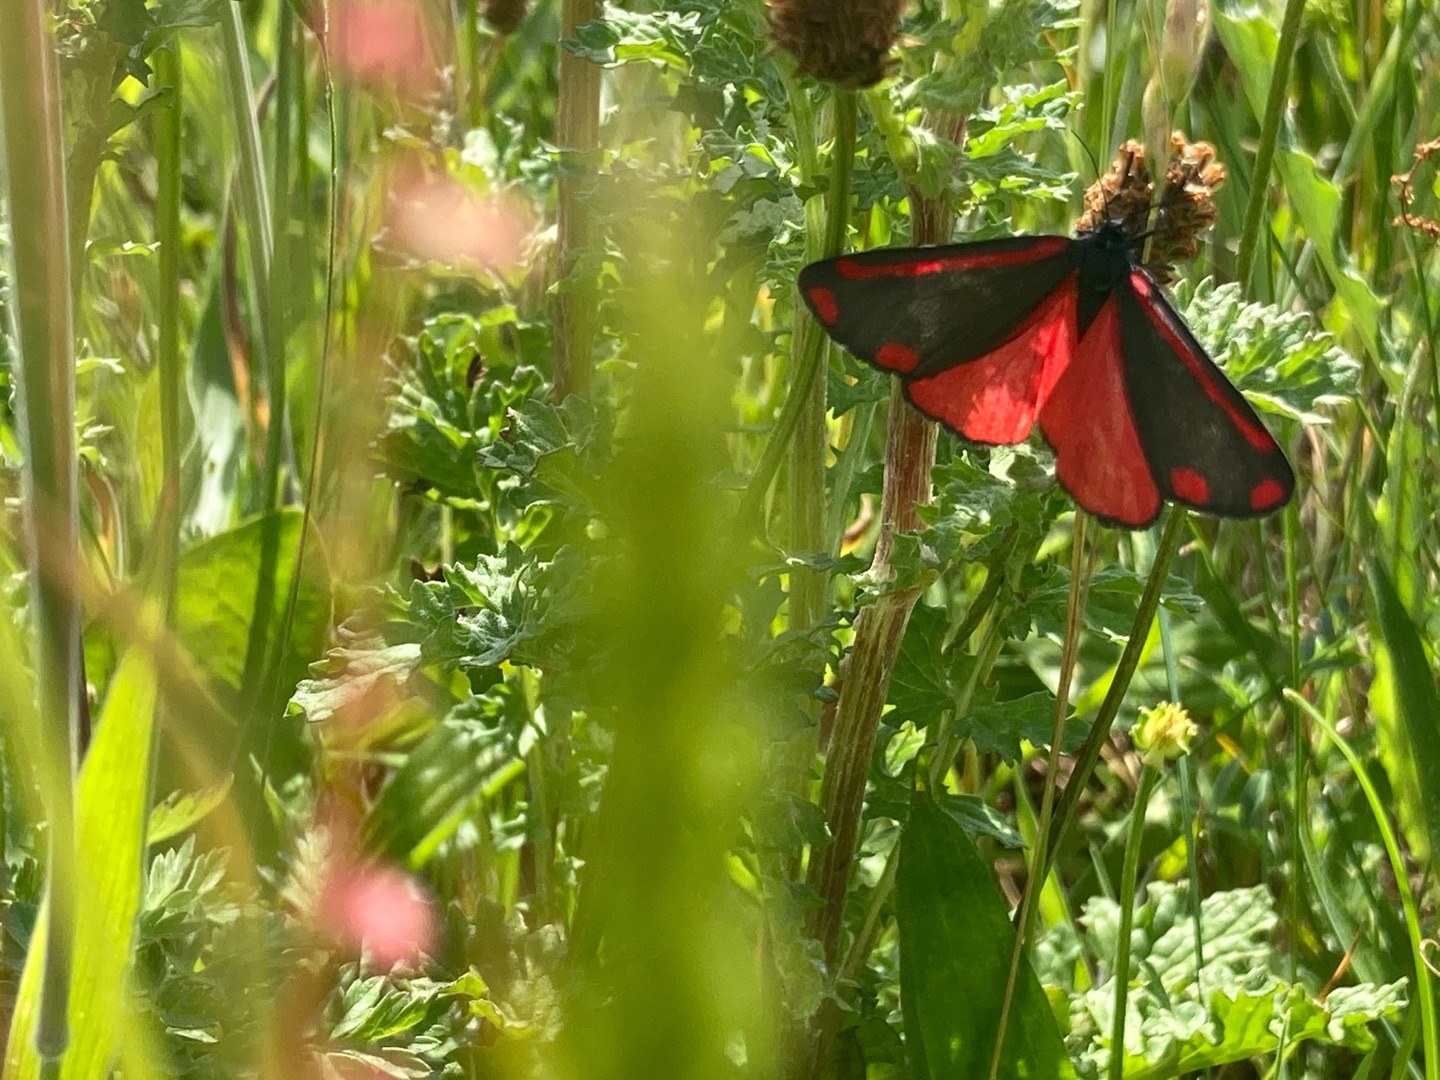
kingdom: Animalia
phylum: Arthropoda
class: Insecta
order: Lepidoptera
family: Erebidae
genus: Tyria
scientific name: Tyria jacobaeae
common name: Blodplet
